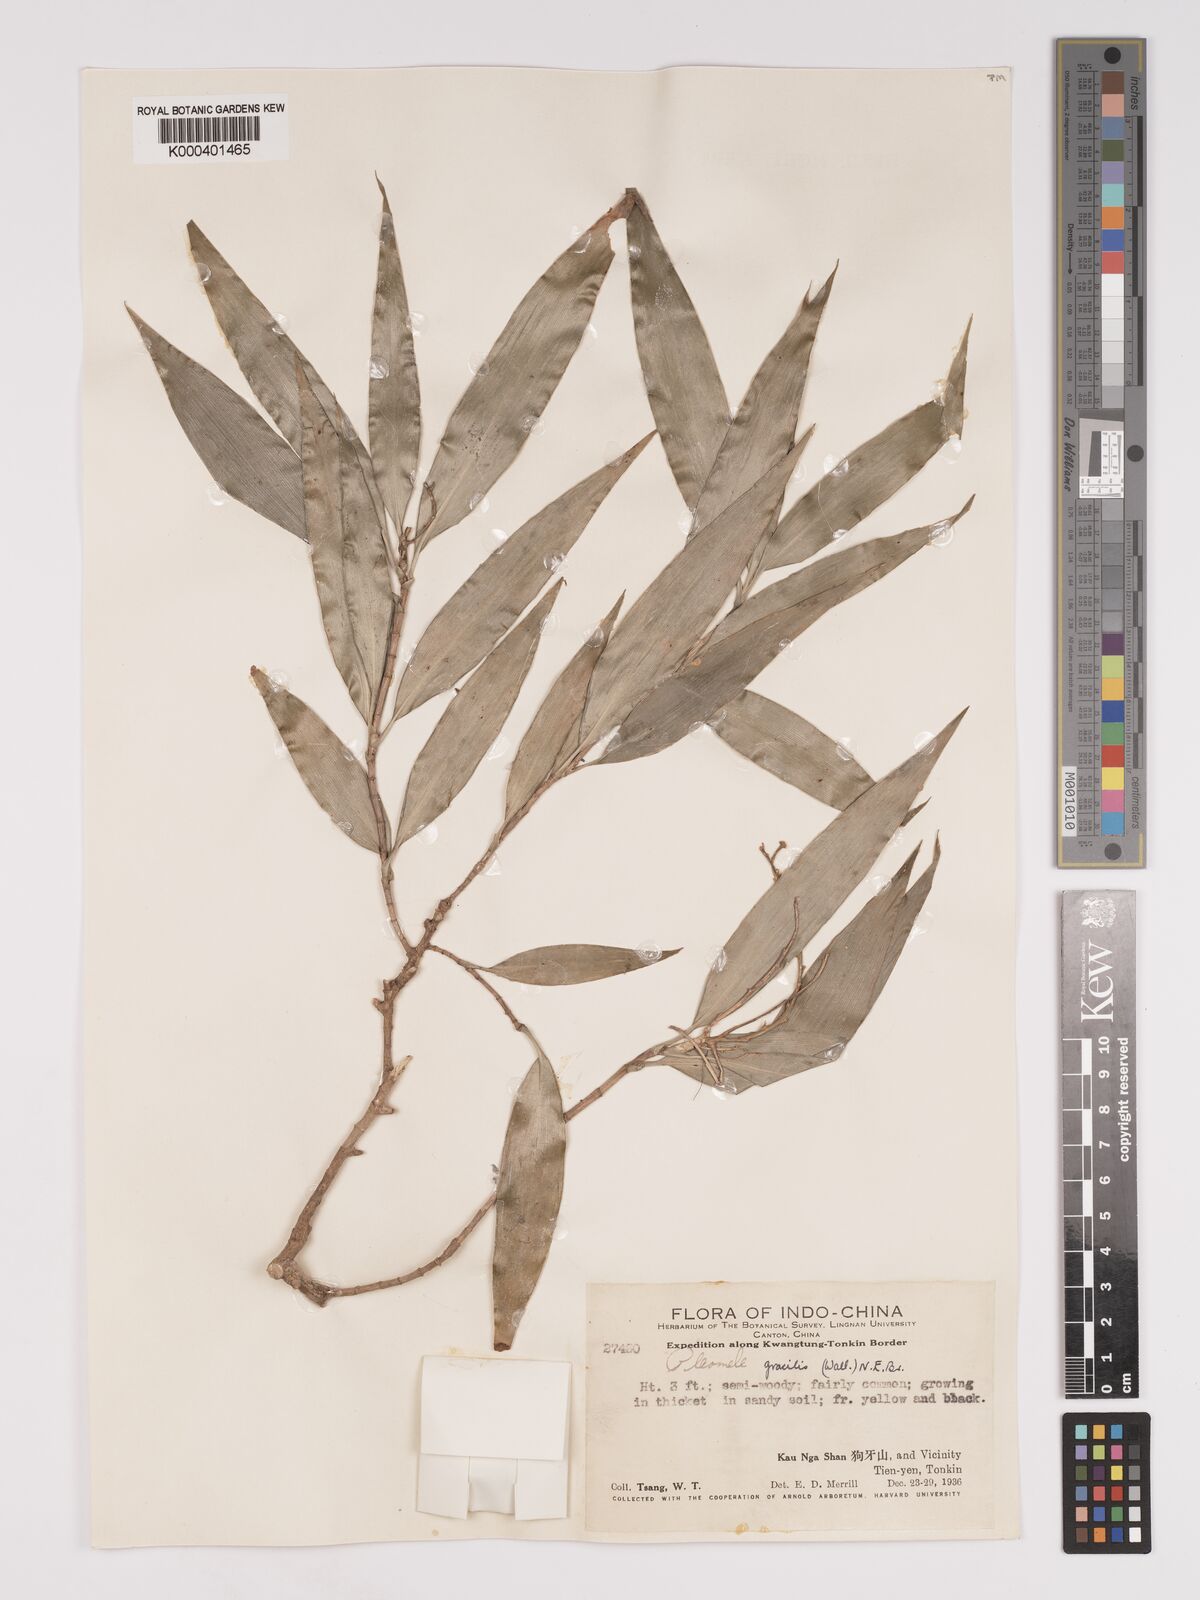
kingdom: Plantae
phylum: Tracheophyta
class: Liliopsida
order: Asparagales
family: Asparagaceae
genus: Dracaena
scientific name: Dracaena elliptica
